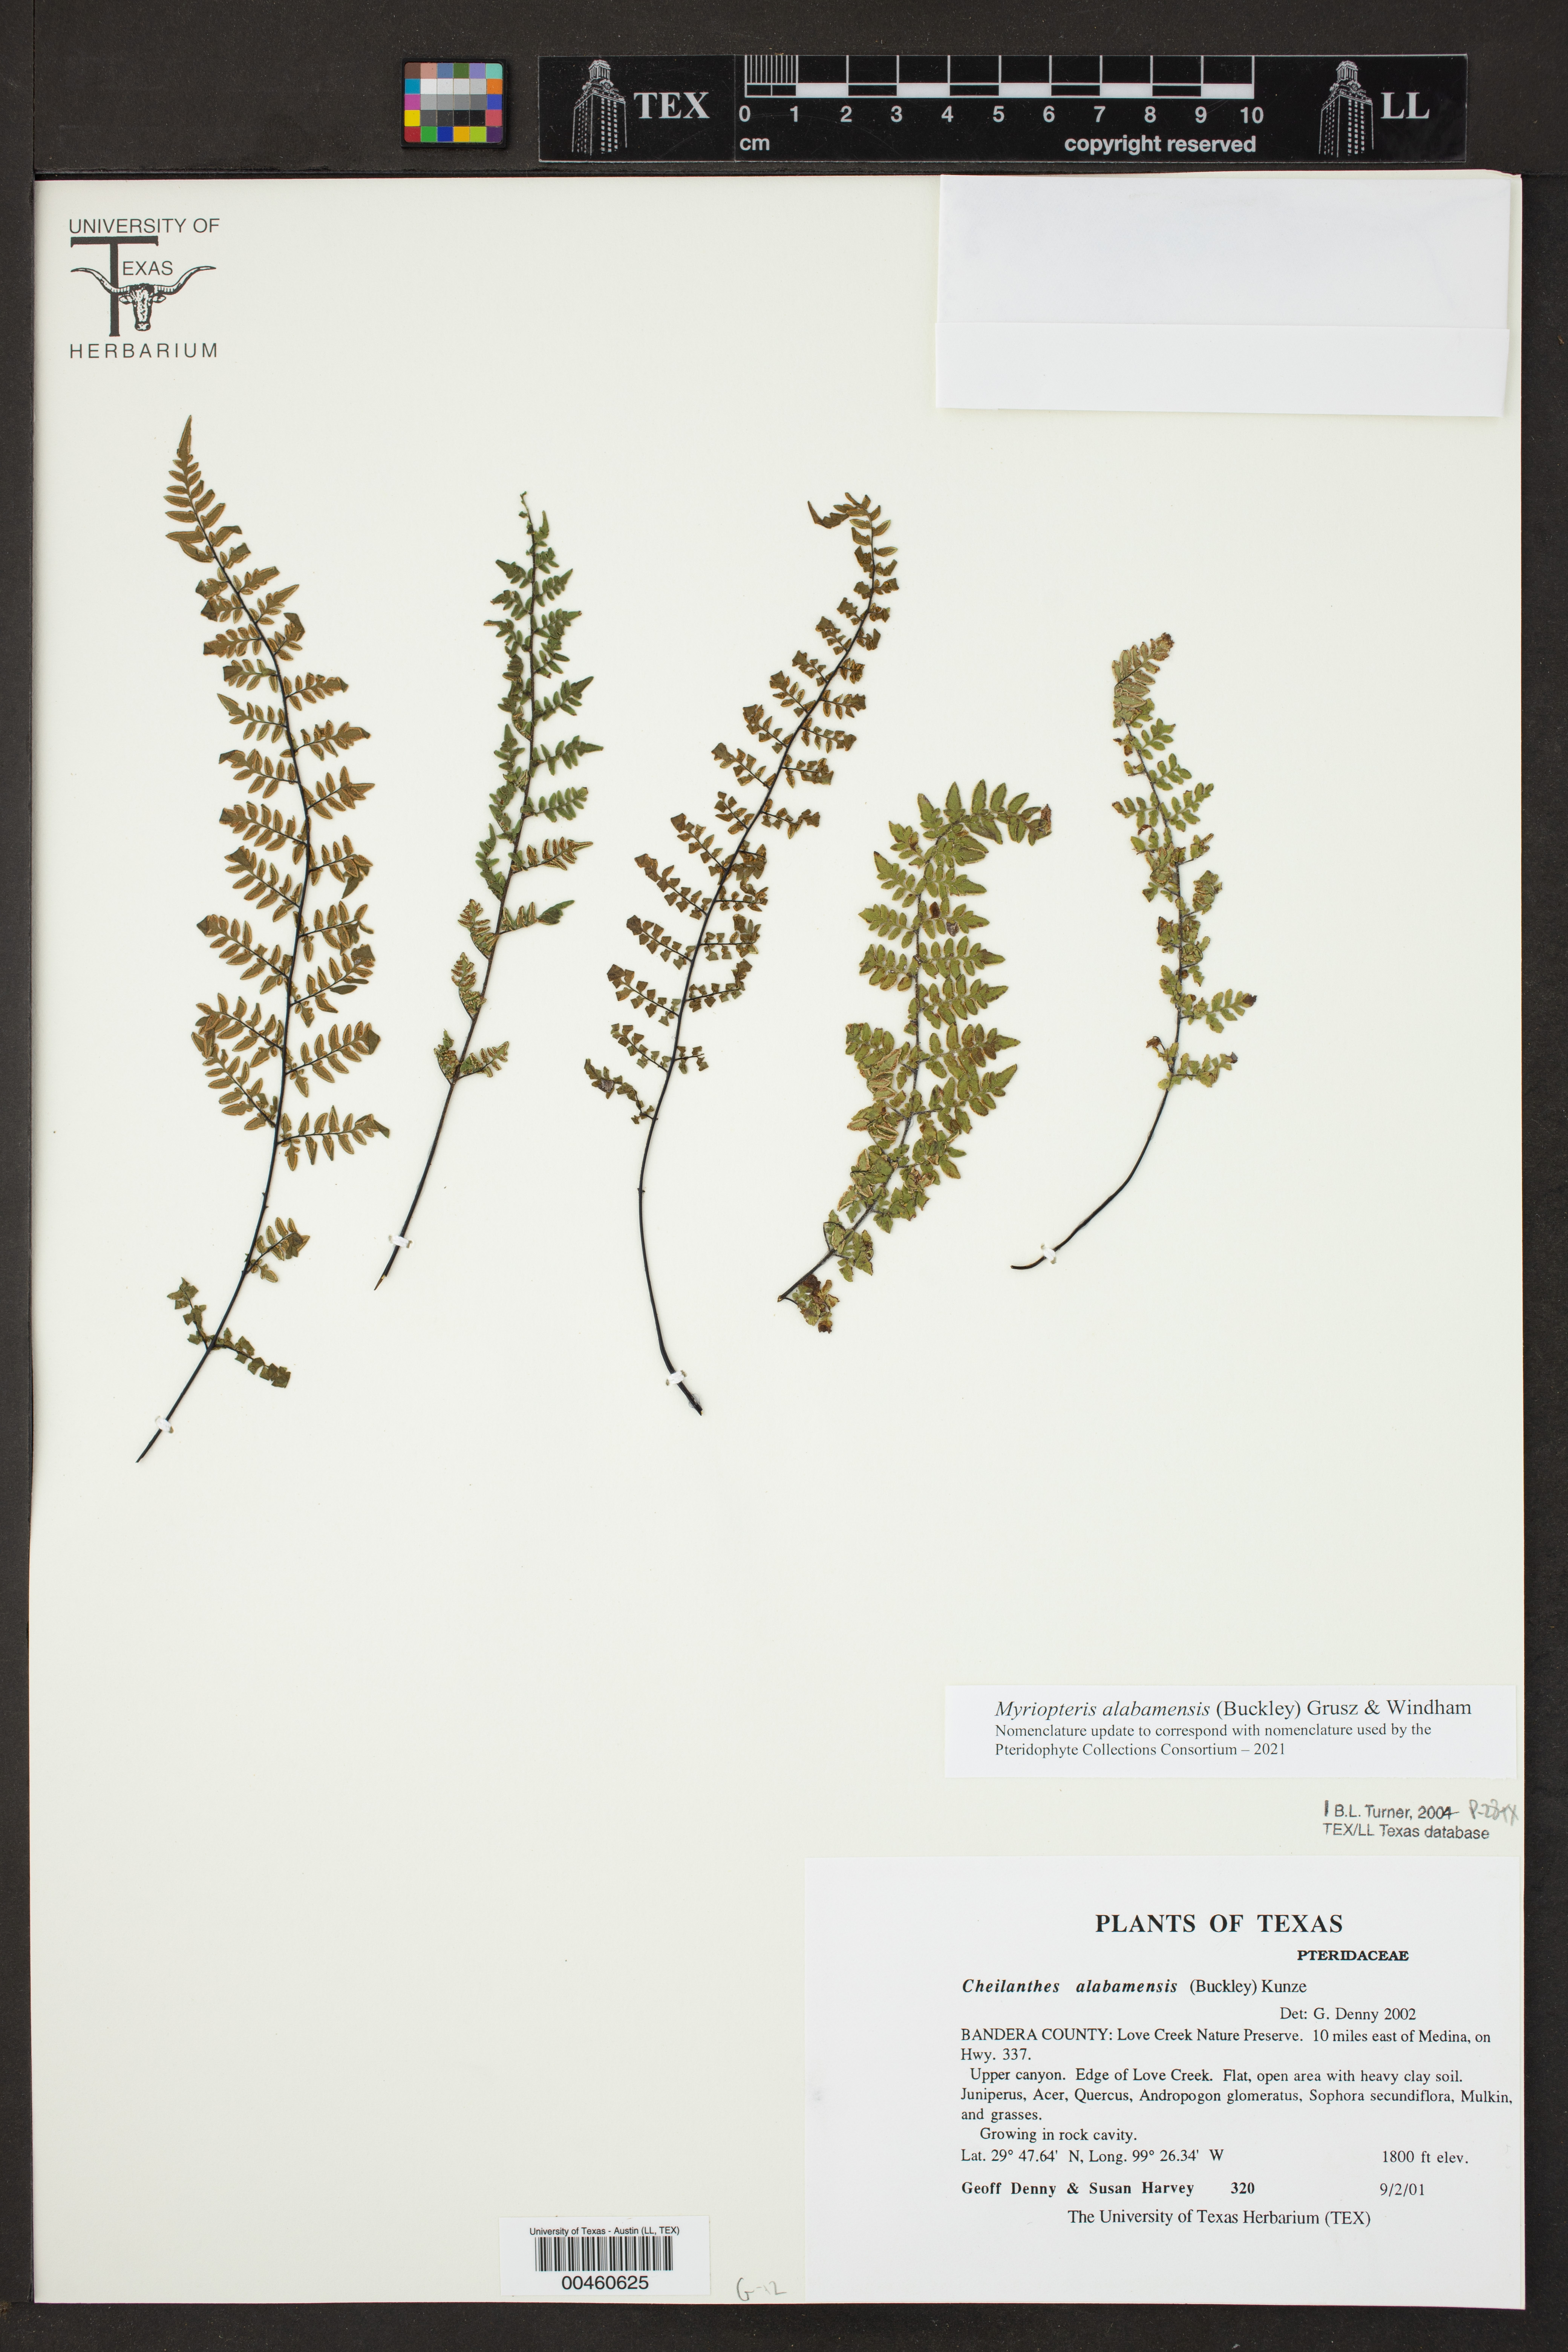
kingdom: Plantae
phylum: Tracheophyta
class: Polypodiopsida
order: Polypodiales
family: Pteridaceae
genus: Myriopteris
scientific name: Myriopteris alabamensis
